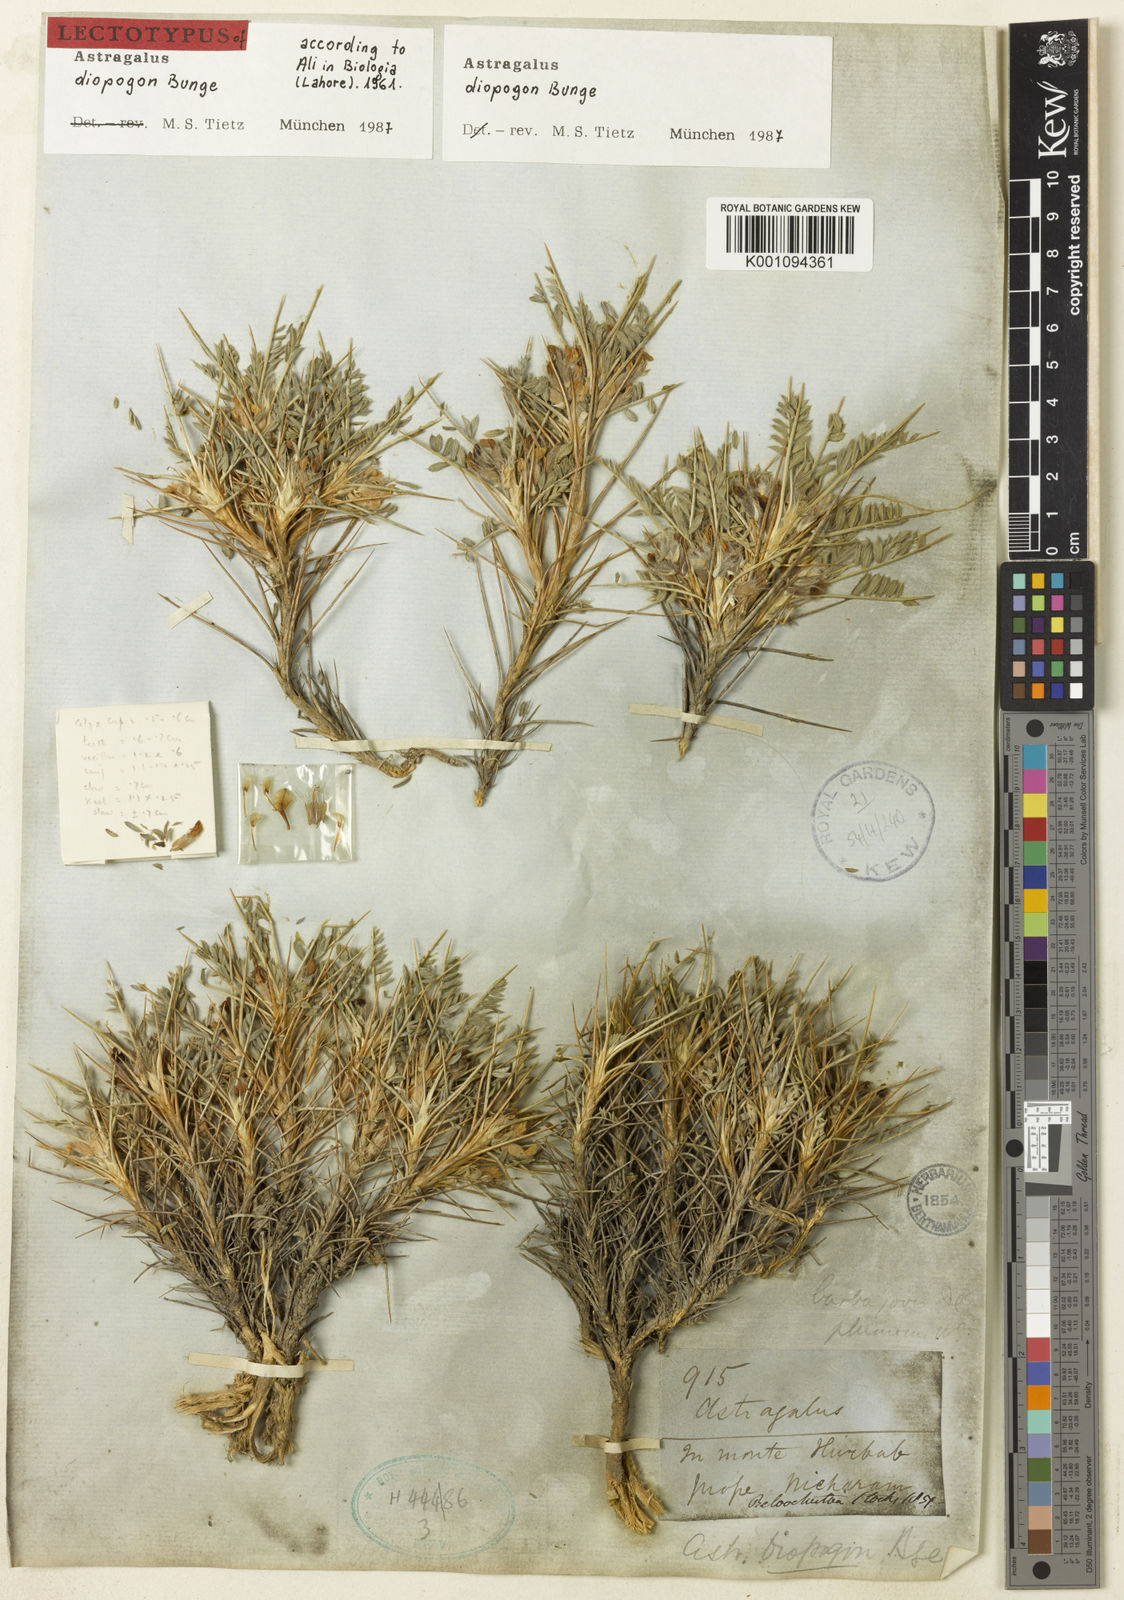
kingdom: Plantae
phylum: Tracheophyta
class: Magnoliopsida
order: Fabales
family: Fabaceae
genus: Astragalus
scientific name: Astragalus
